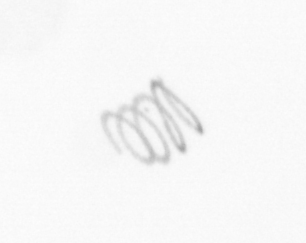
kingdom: Chromista
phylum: Ochrophyta
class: Bacillariophyceae
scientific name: Bacillariophyceae
